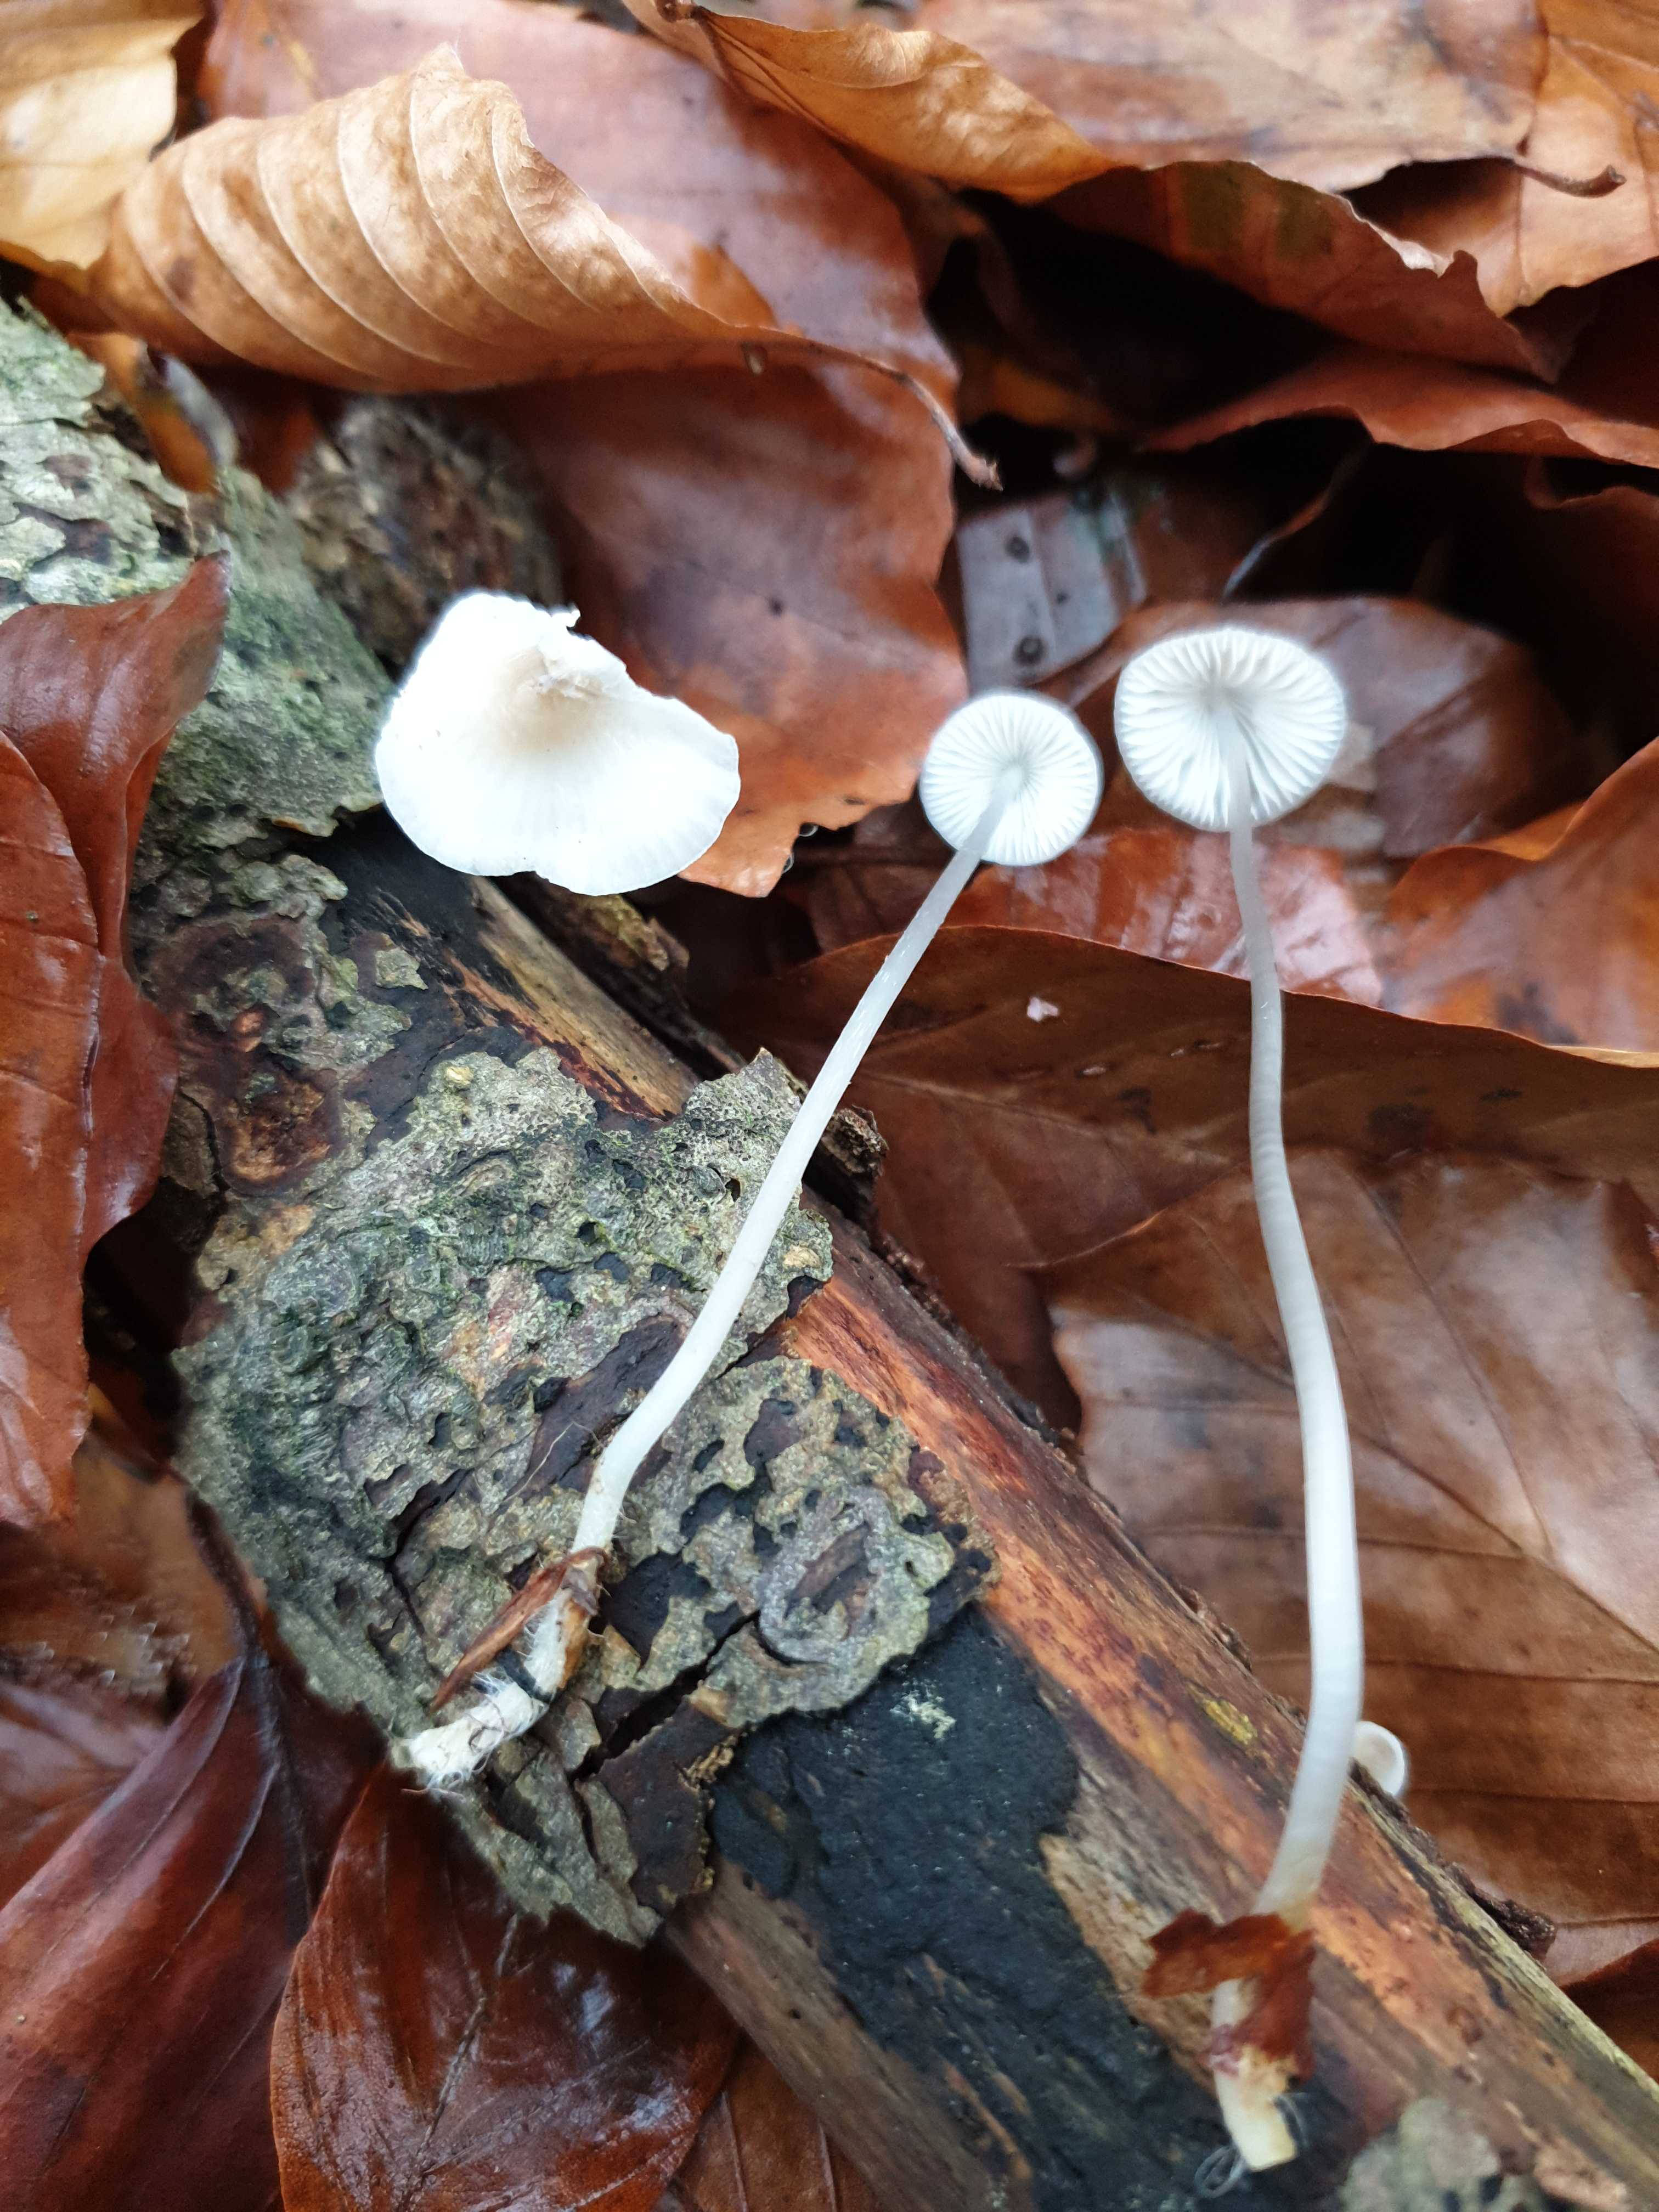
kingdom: Fungi
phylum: Basidiomycota
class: Agaricomycetes
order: Agaricales
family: Mycenaceae
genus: Mycena
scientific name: Mycena vitilis
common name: blankstokket huesvamp
